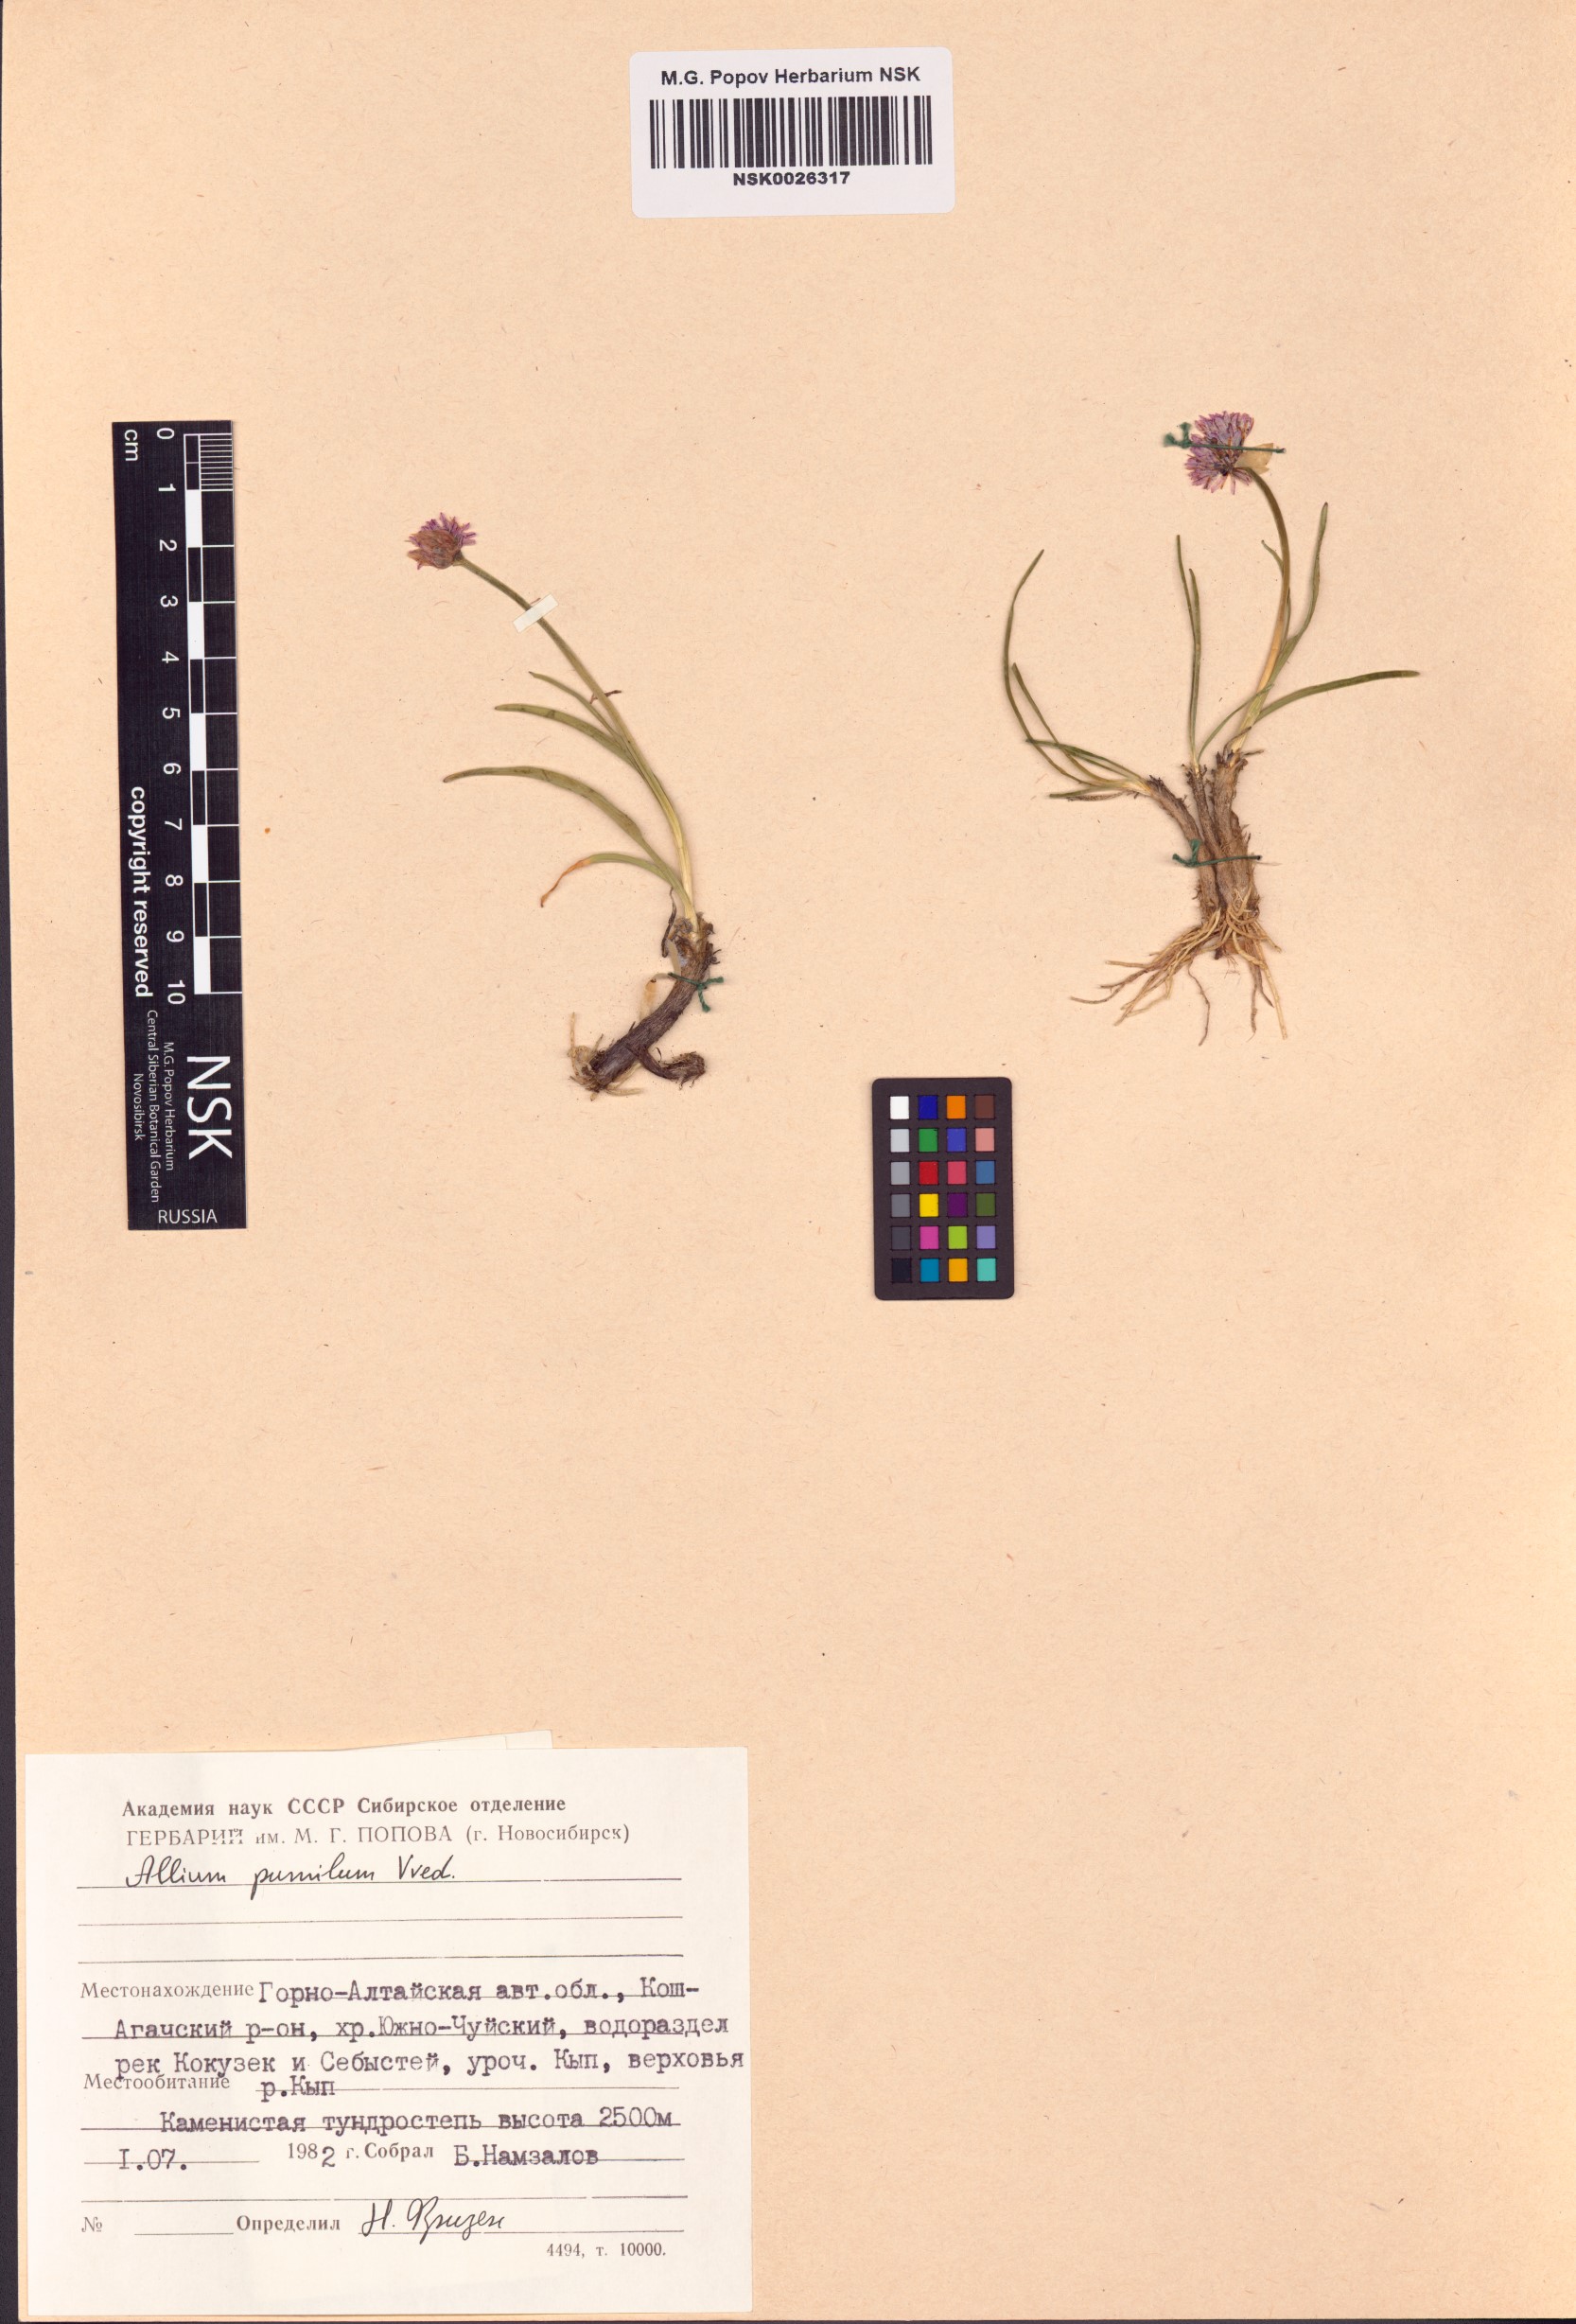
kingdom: Plantae
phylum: Tracheophyta
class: Liliopsida
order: Asparagales
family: Amaryllidaceae
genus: Allium
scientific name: Allium pumilum
